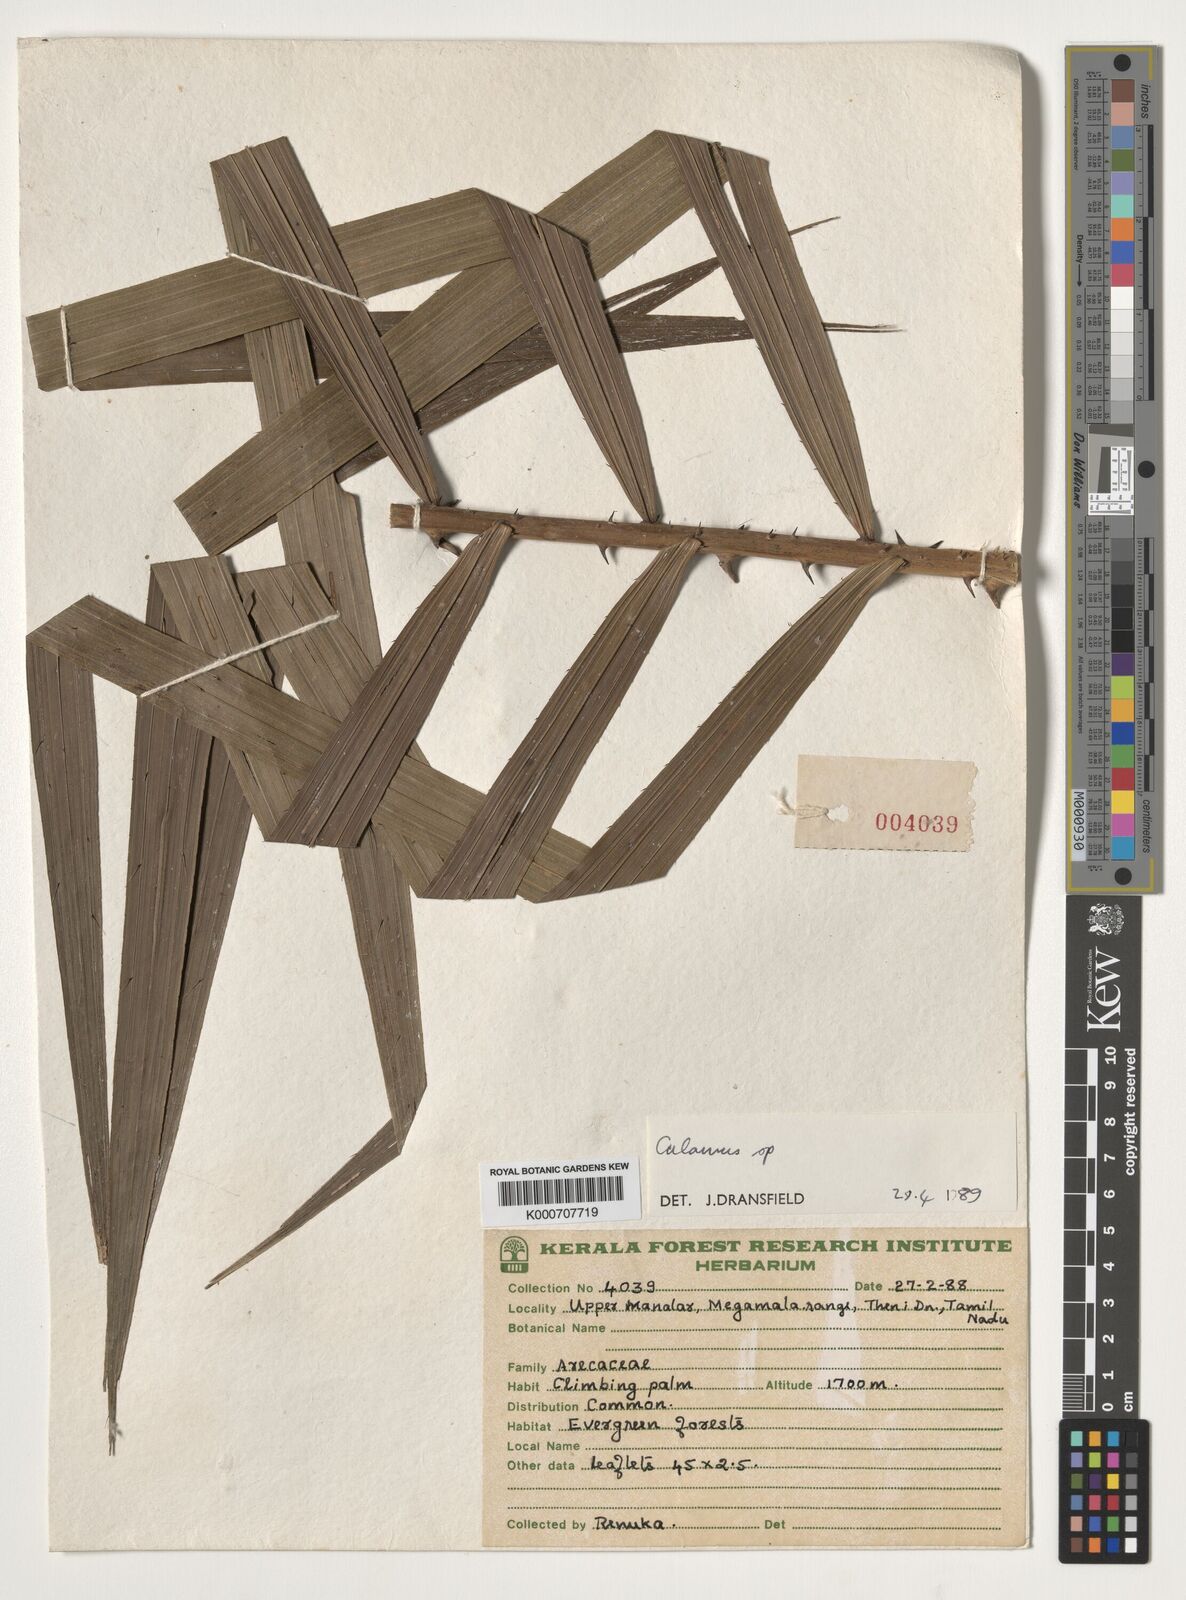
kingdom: Plantae
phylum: Tracheophyta
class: Liliopsida
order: Arecales
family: Arecaceae
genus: Calamus
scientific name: Calamus
